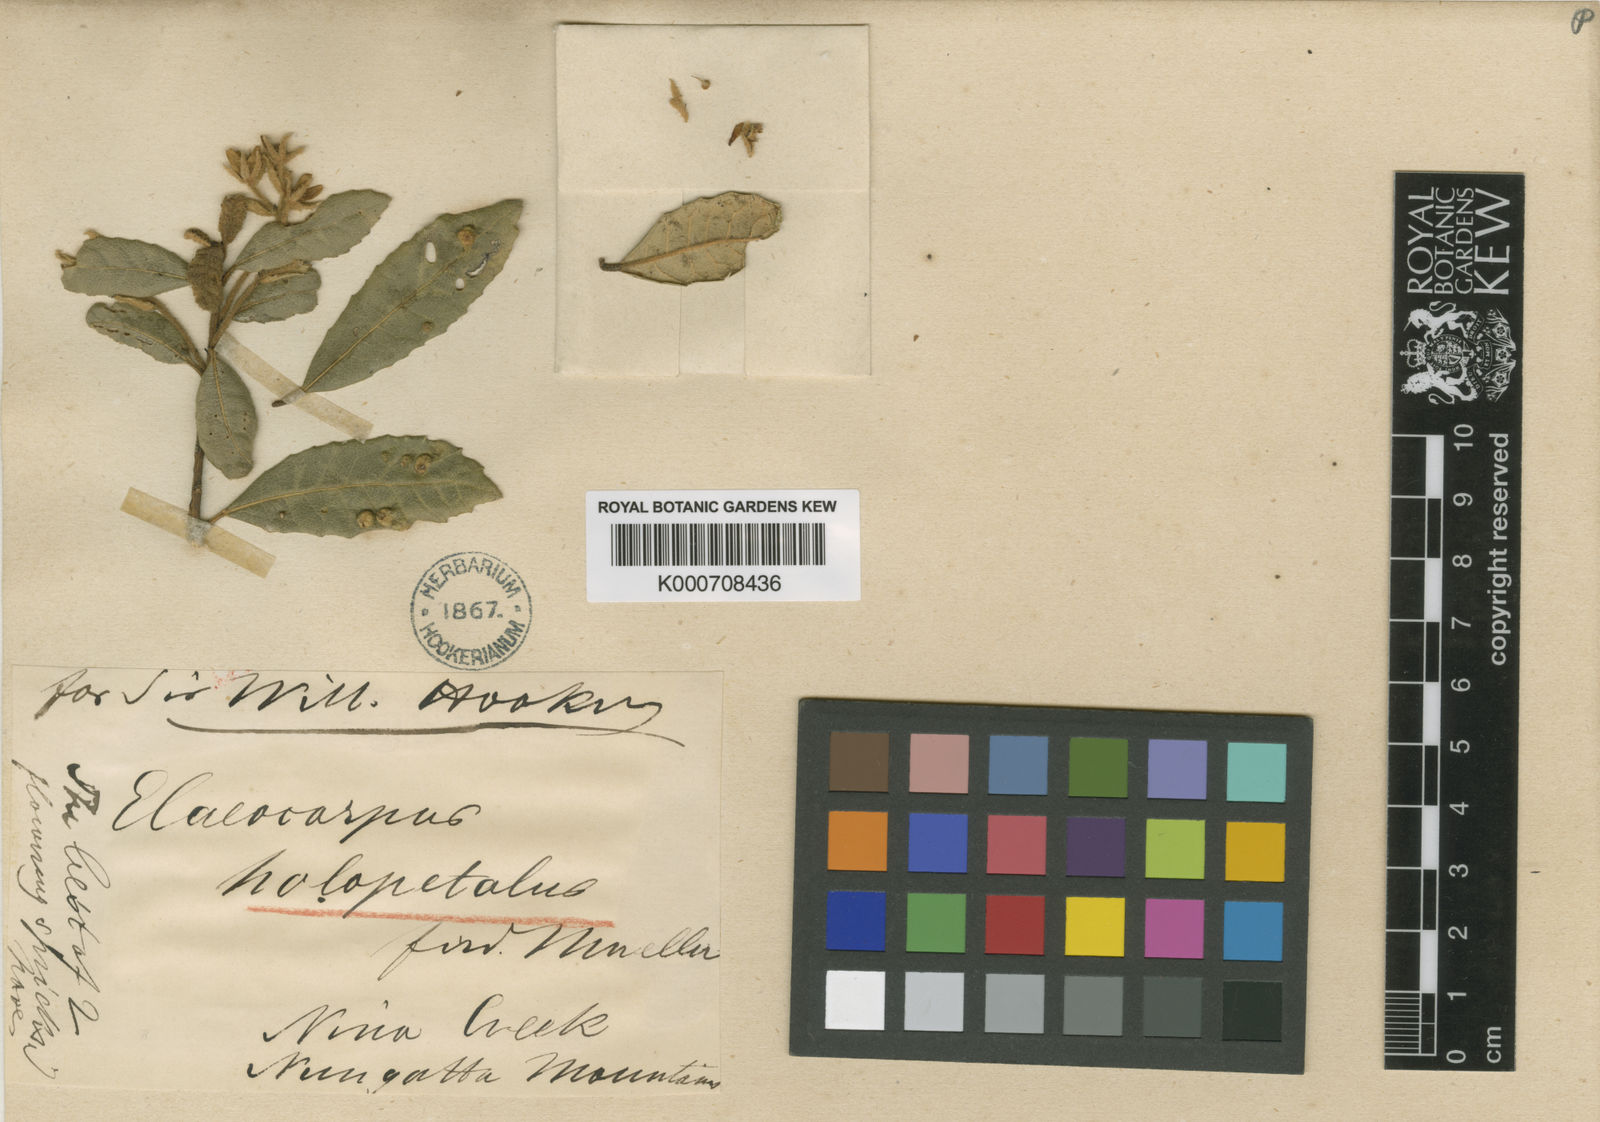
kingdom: Plantae
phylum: Tracheophyta
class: Magnoliopsida
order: Oxalidales
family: Elaeocarpaceae
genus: Elaeocarpus
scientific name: Elaeocarpus holopetalus
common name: Black olive berry
